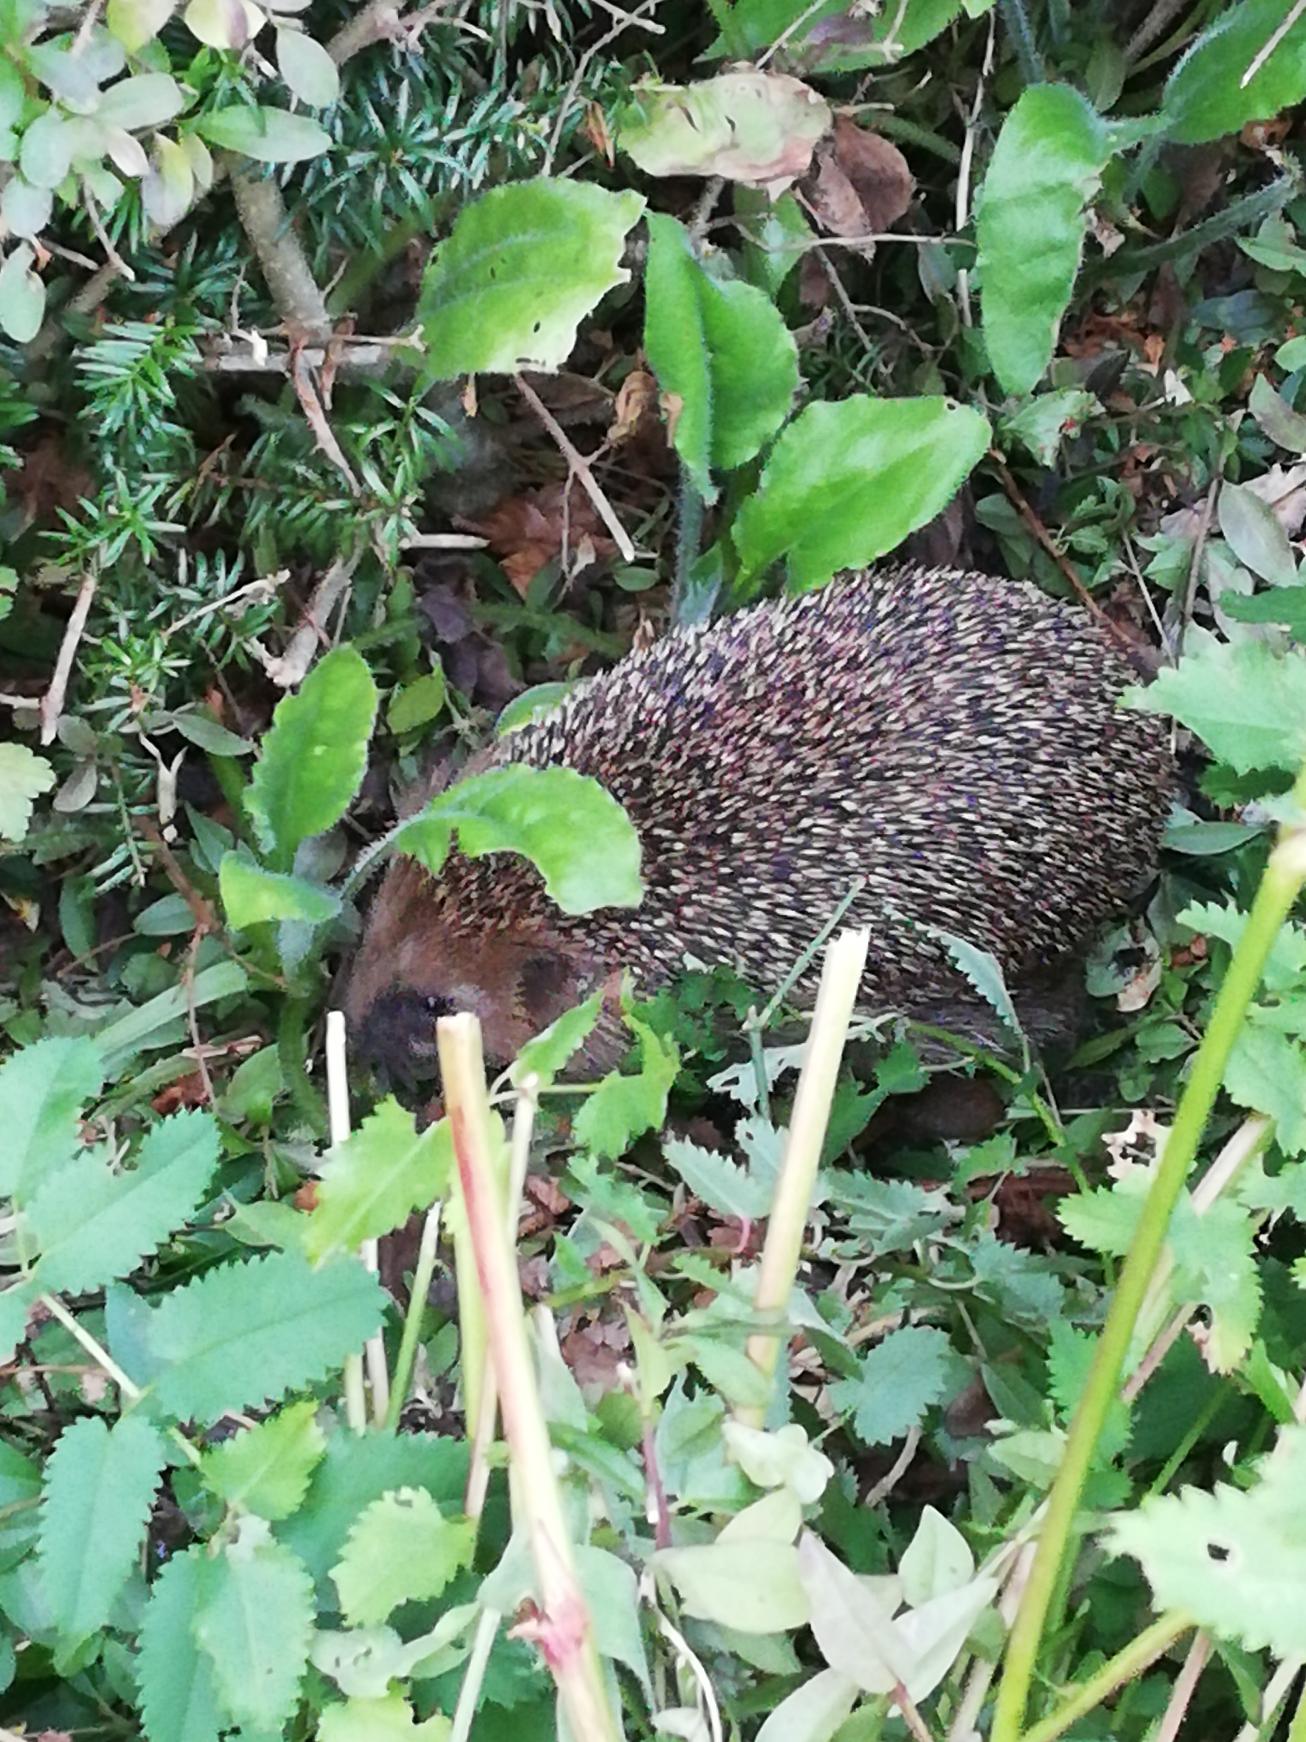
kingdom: Animalia
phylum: Chordata
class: Mammalia
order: Erinaceomorpha
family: Erinaceidae
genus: Erinaceus
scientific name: Erinaceus europaeus
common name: Pindsvin
